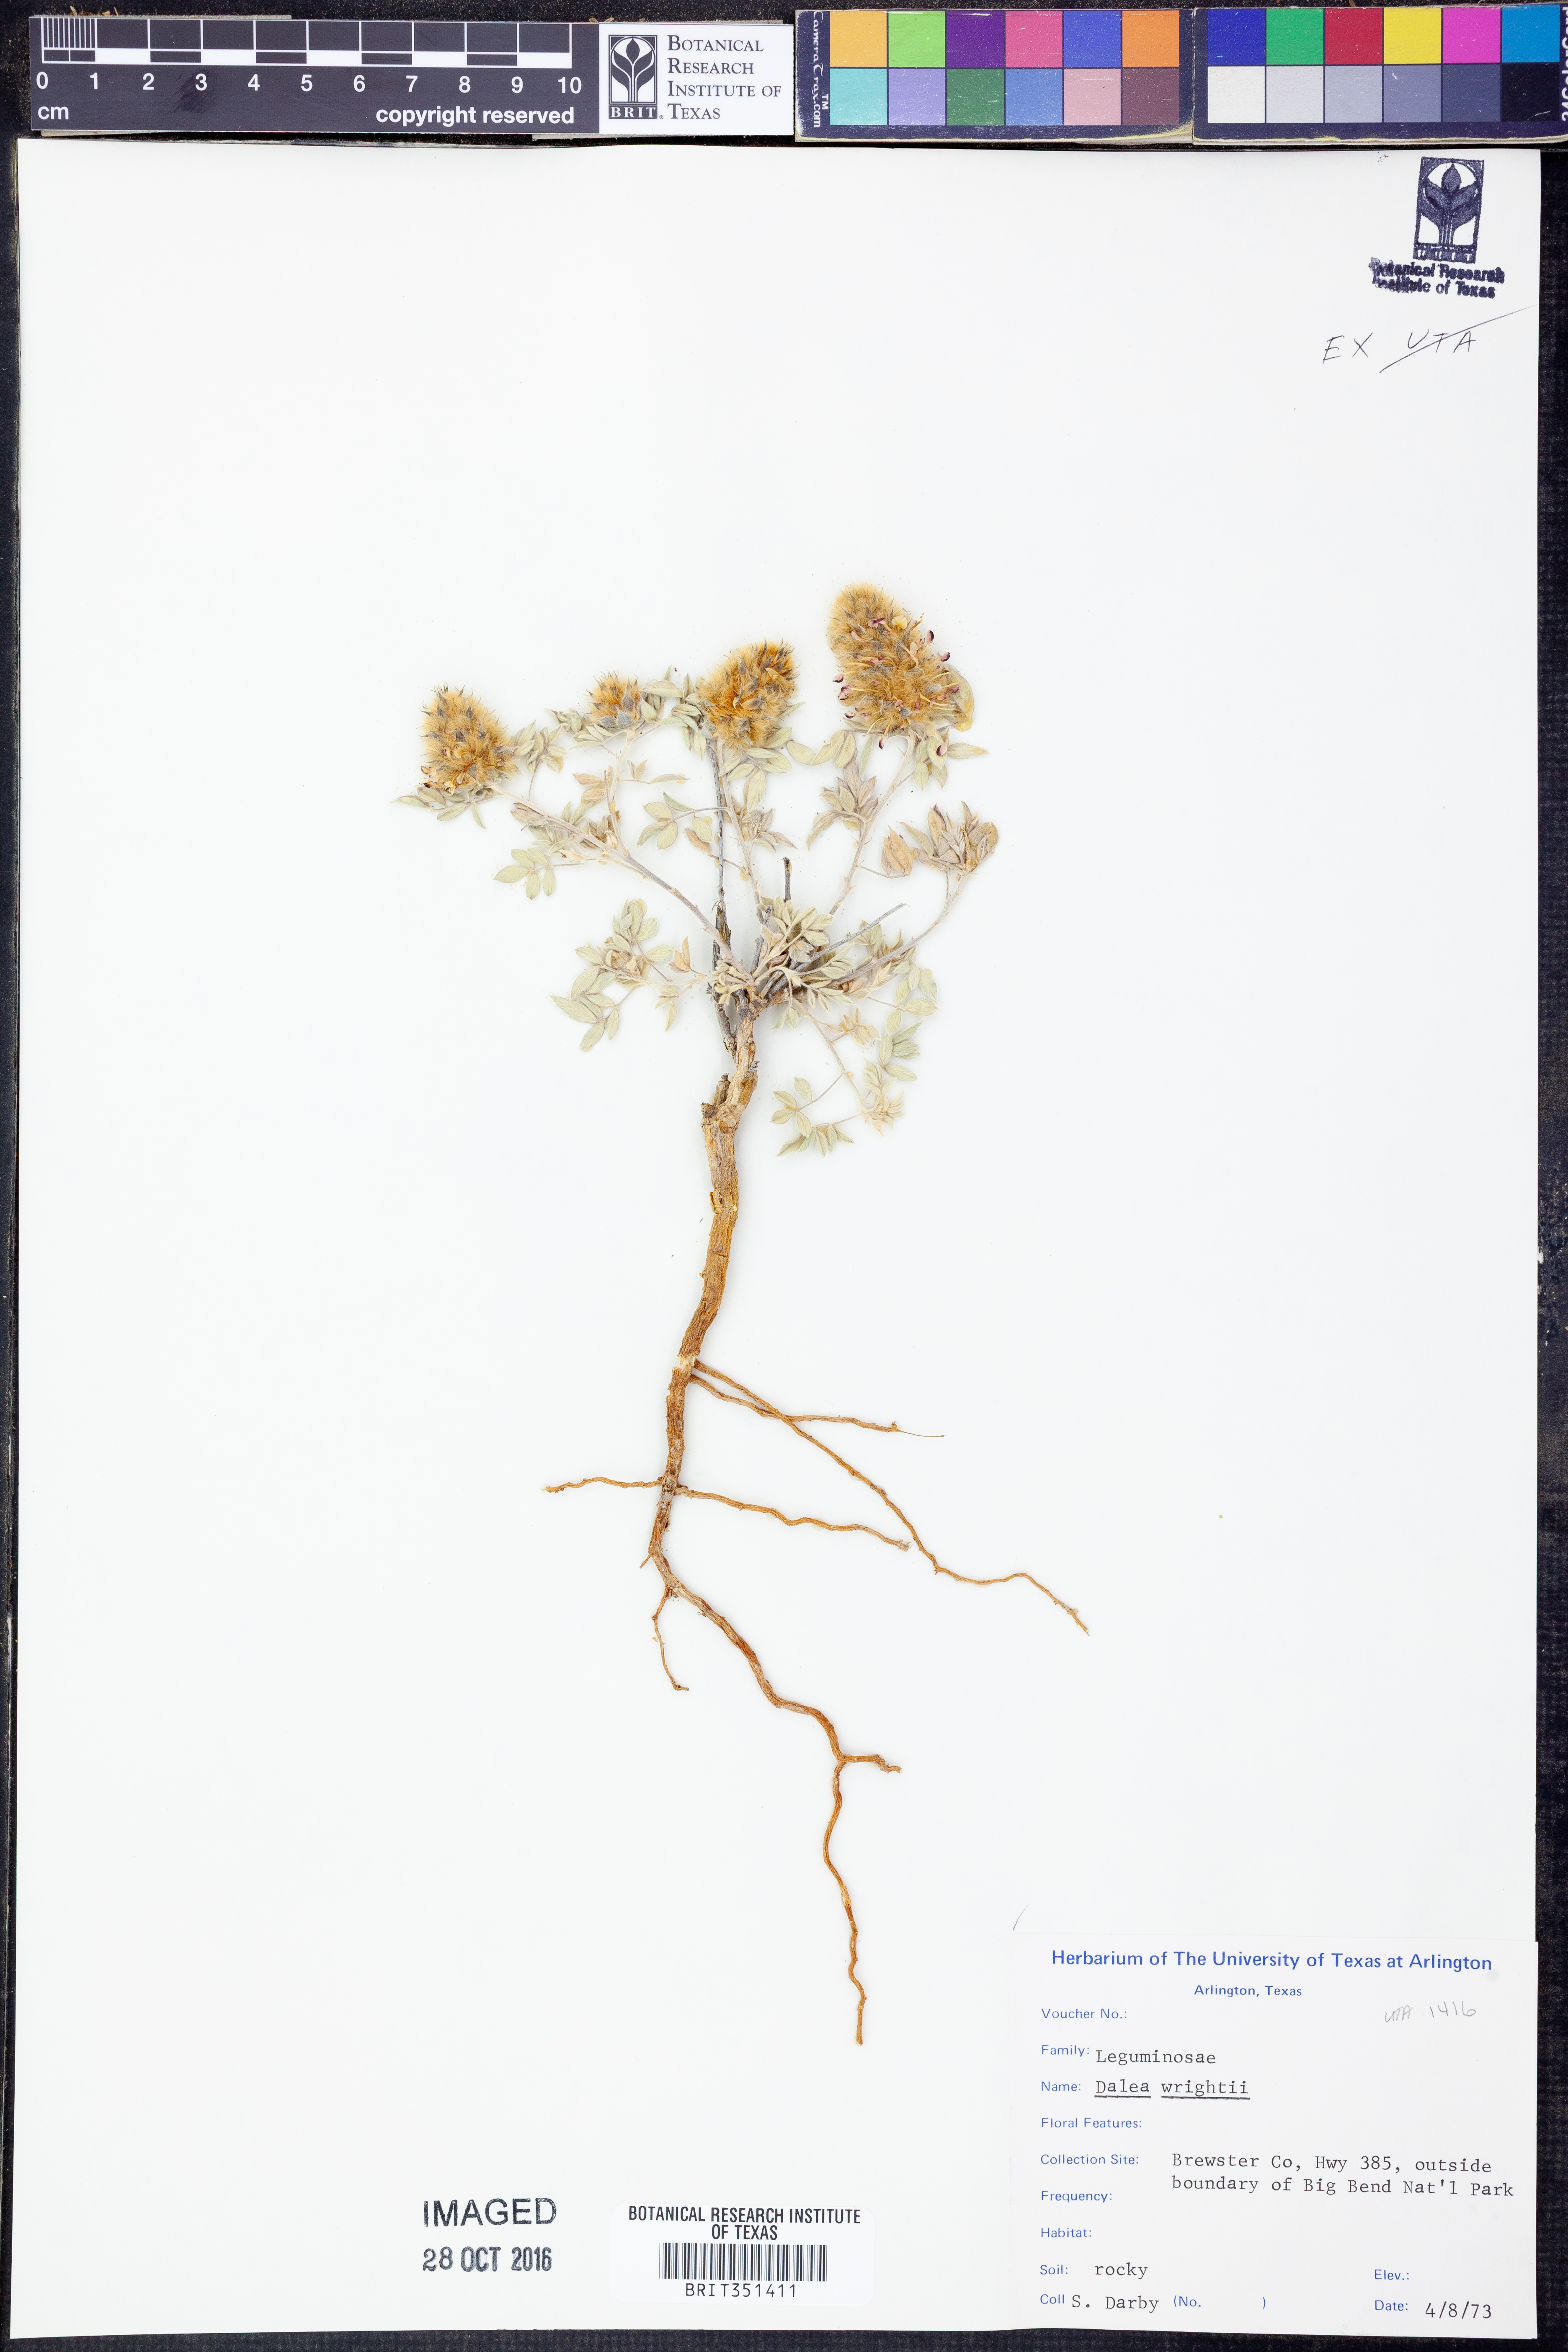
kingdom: Plantae
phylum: Tracheophyta
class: Magnoliopsida
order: Fabales
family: Fabaceae
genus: Dalea
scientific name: Dalea wrightii
